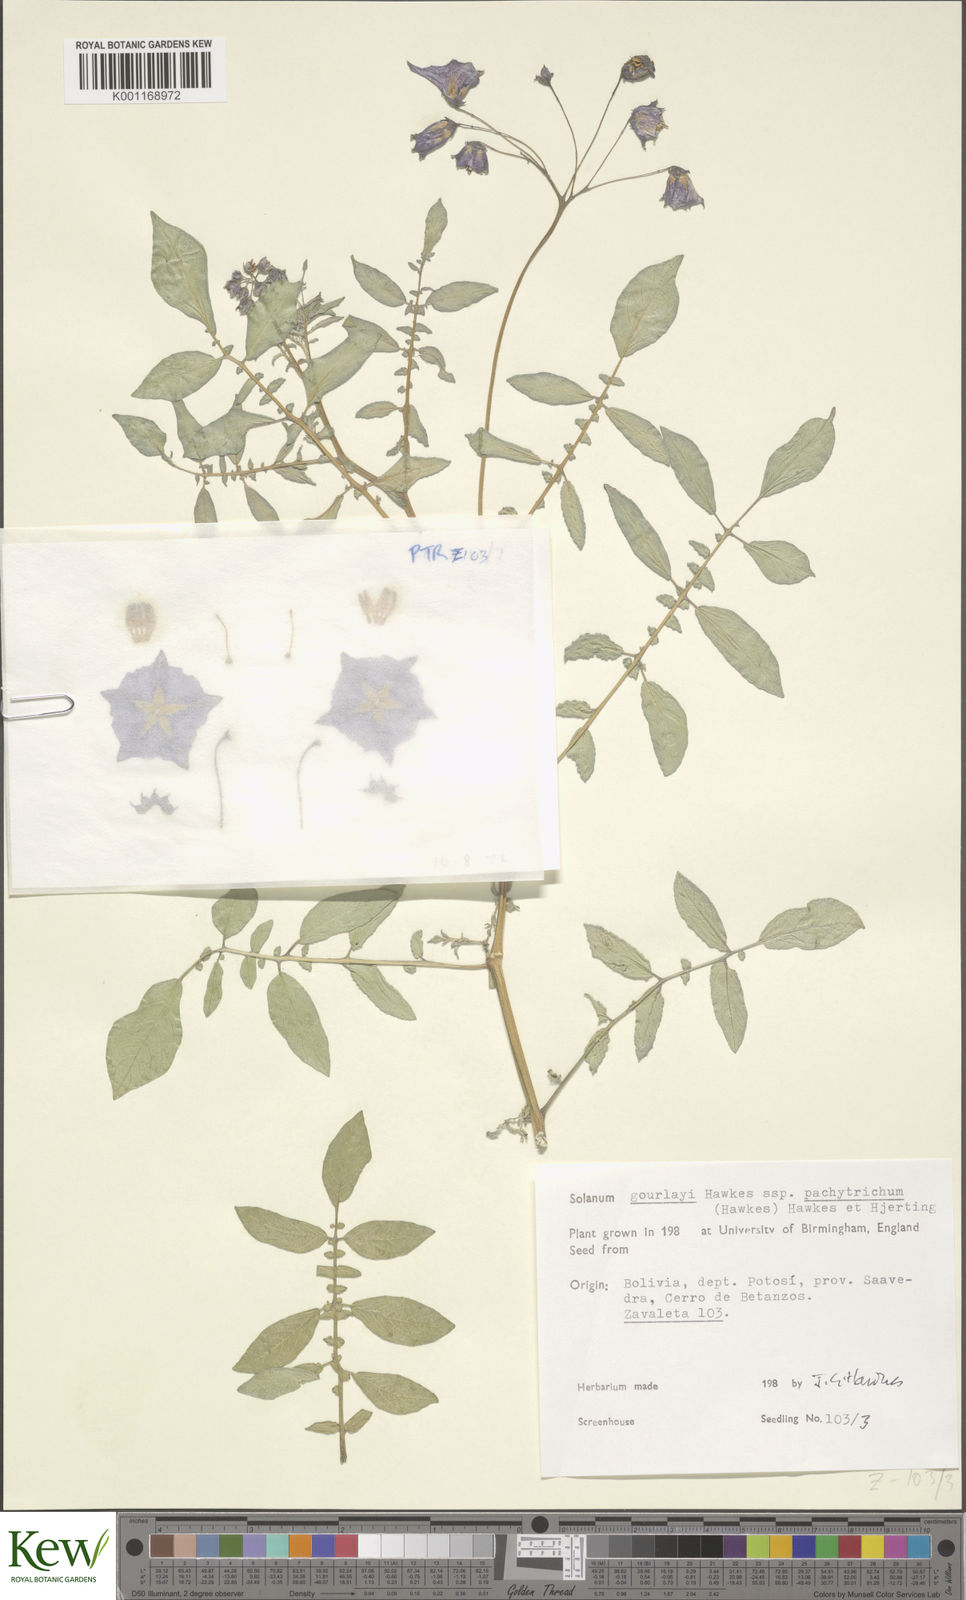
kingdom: Plantae
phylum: Tracheophyta
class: Magnoliopsida
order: Solanales
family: Solanaceae
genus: Solanum
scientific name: Solanum brevicaule
